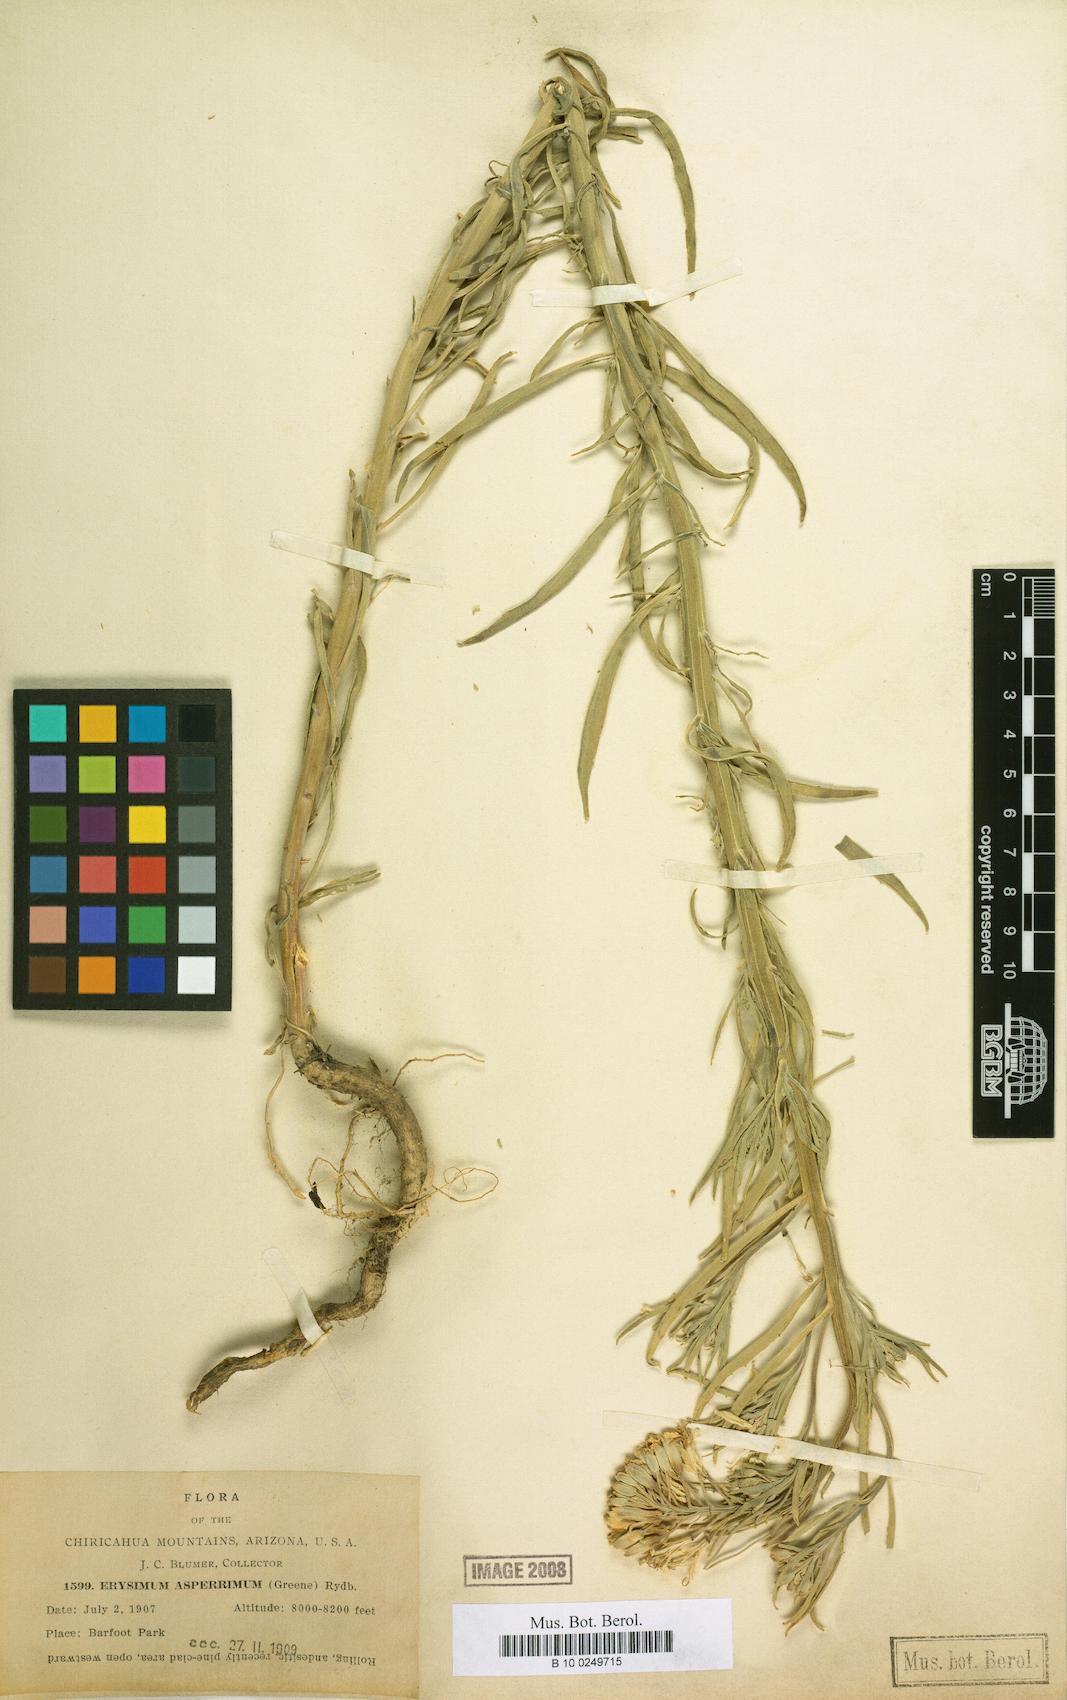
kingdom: Plantae
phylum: Tracheophyta
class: Magnoliopsida
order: Brassicales
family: Brassicaceae
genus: Erysimum
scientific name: Erysimum capitatum
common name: Western wallflower
